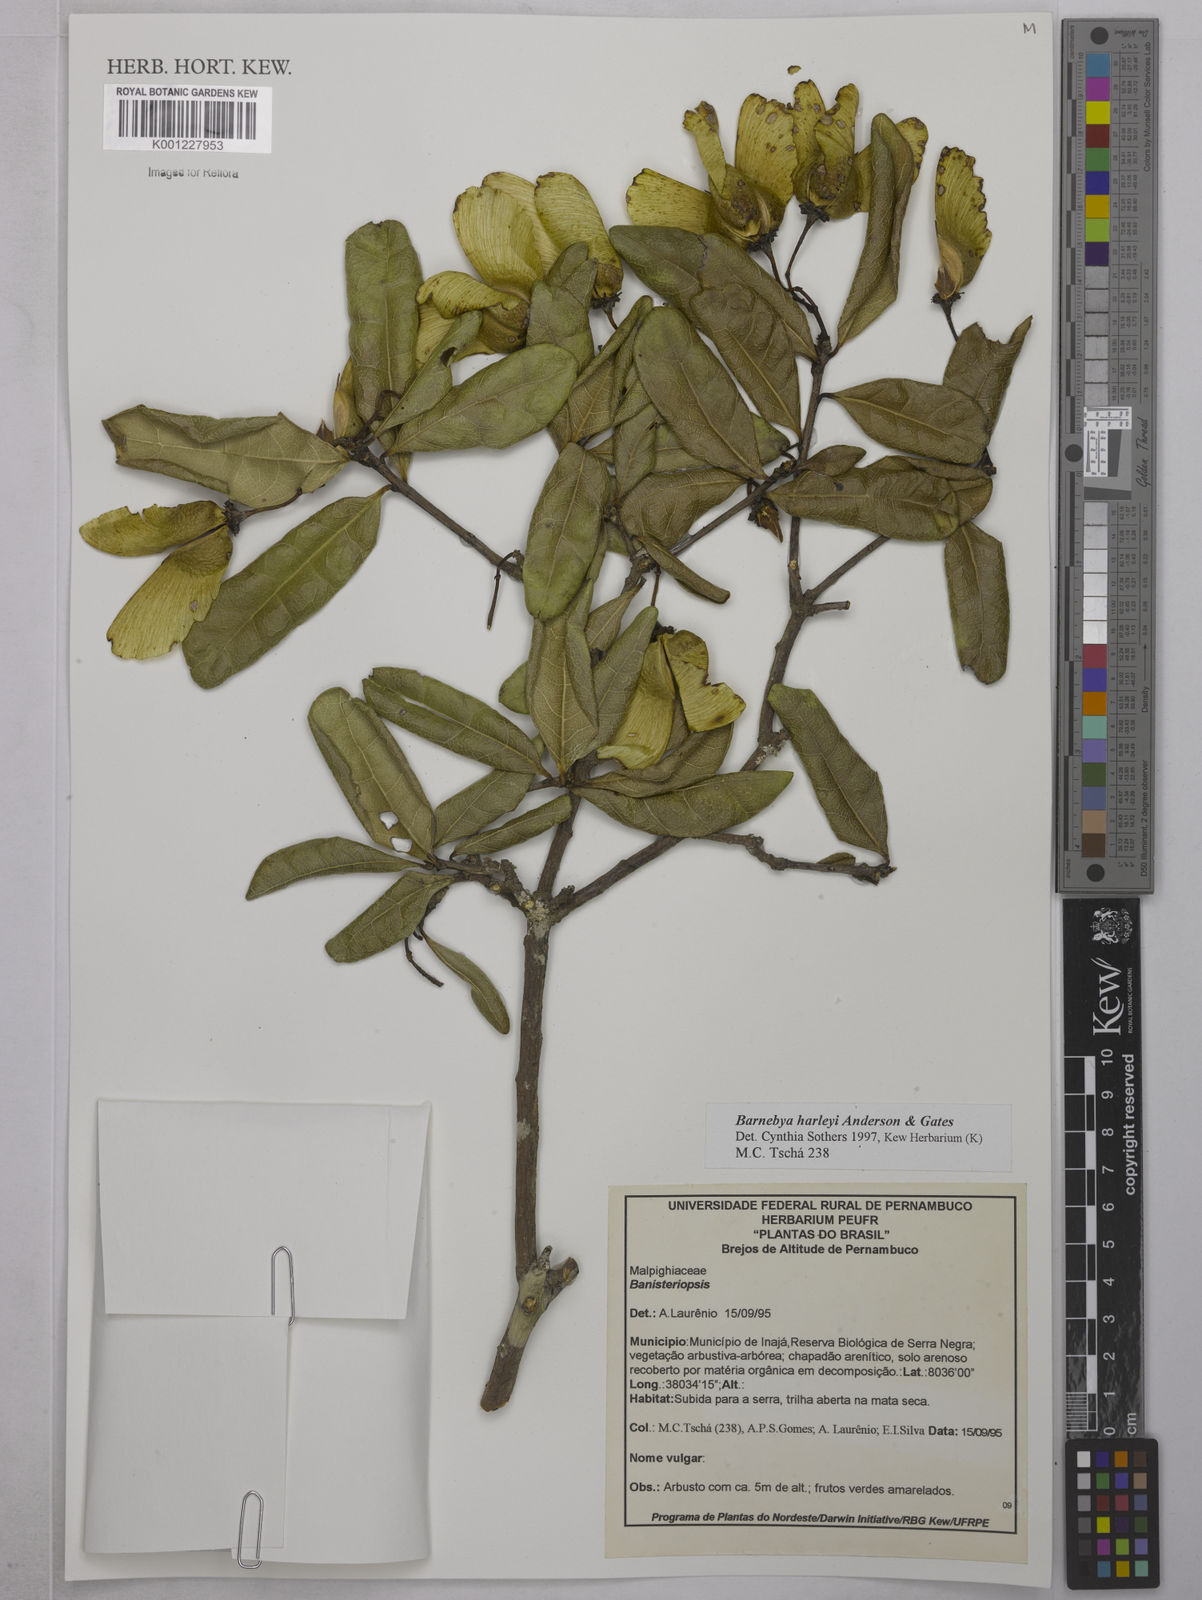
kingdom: Plantae
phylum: Tracheophyta
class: Magnoliopsida
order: Malpighiales
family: Malpighiaceae
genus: Barnebya
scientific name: Barnebya harleyi
